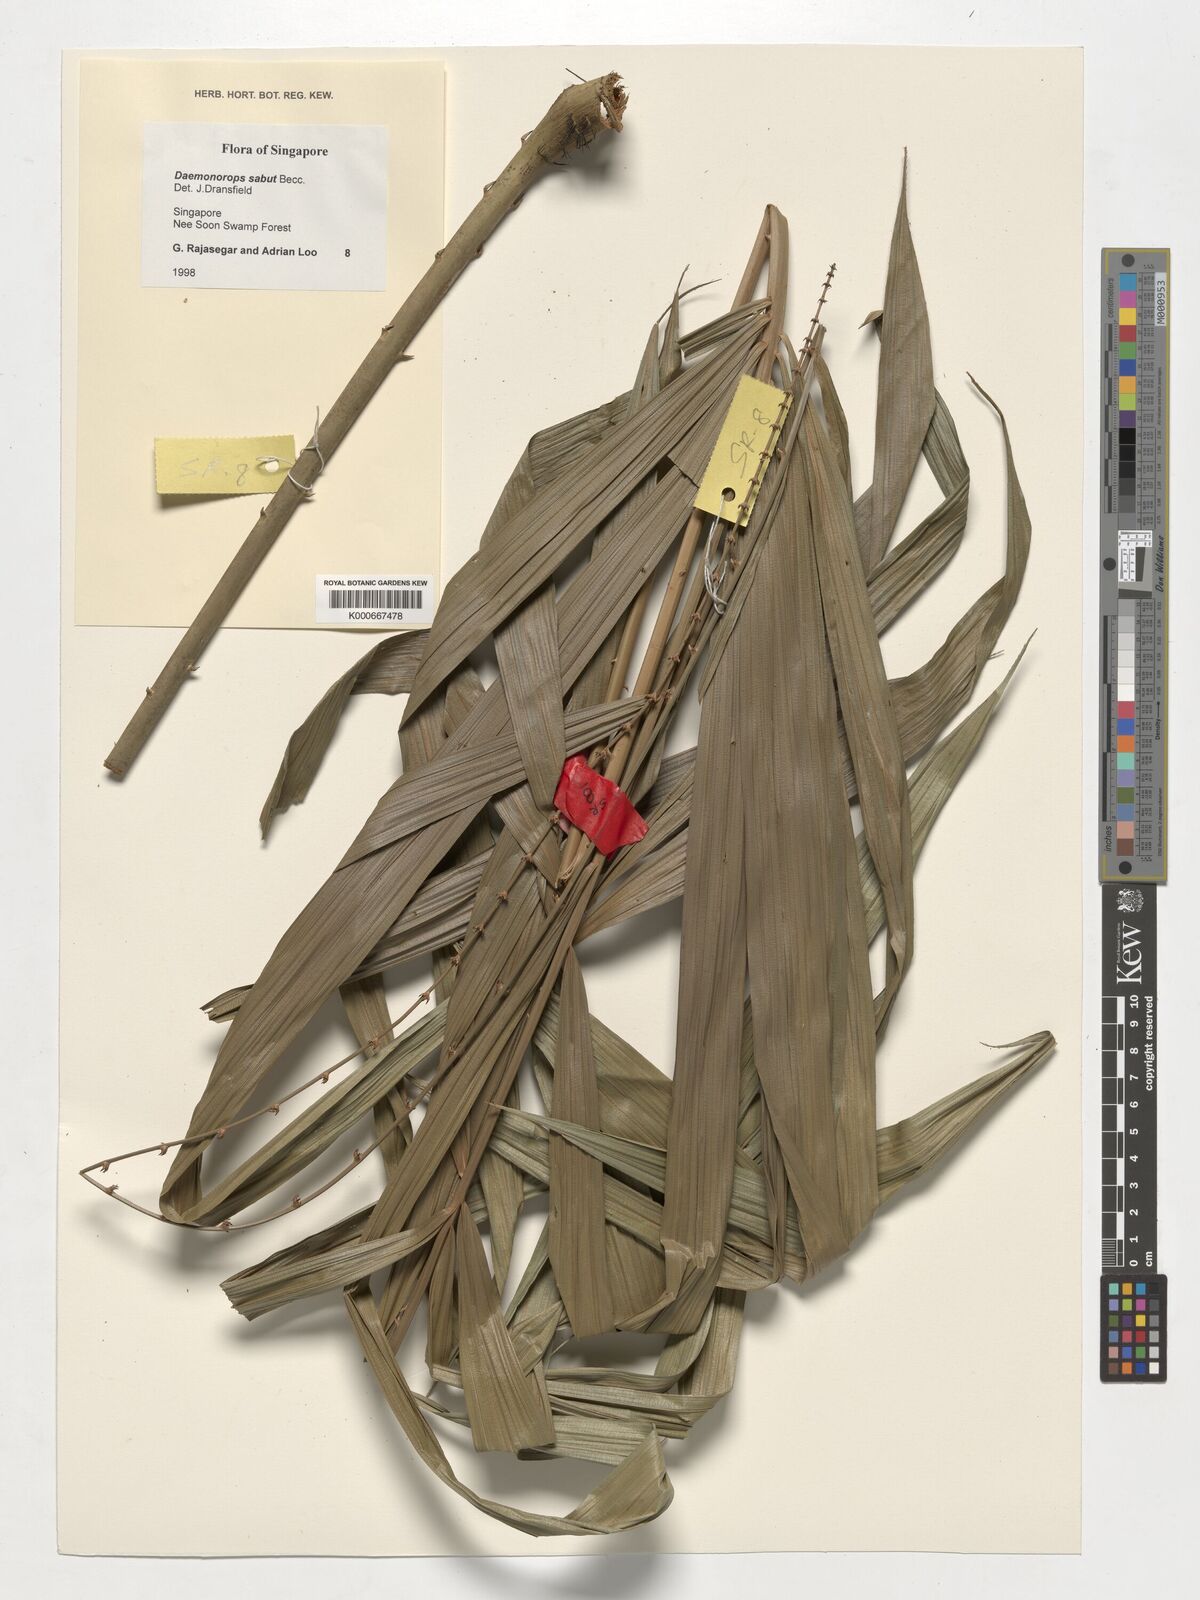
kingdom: Plantae
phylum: Tracheophyta
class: Liliopsida
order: Arecales
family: Arecaceae
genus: Calamus
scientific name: Calamus crinitus
